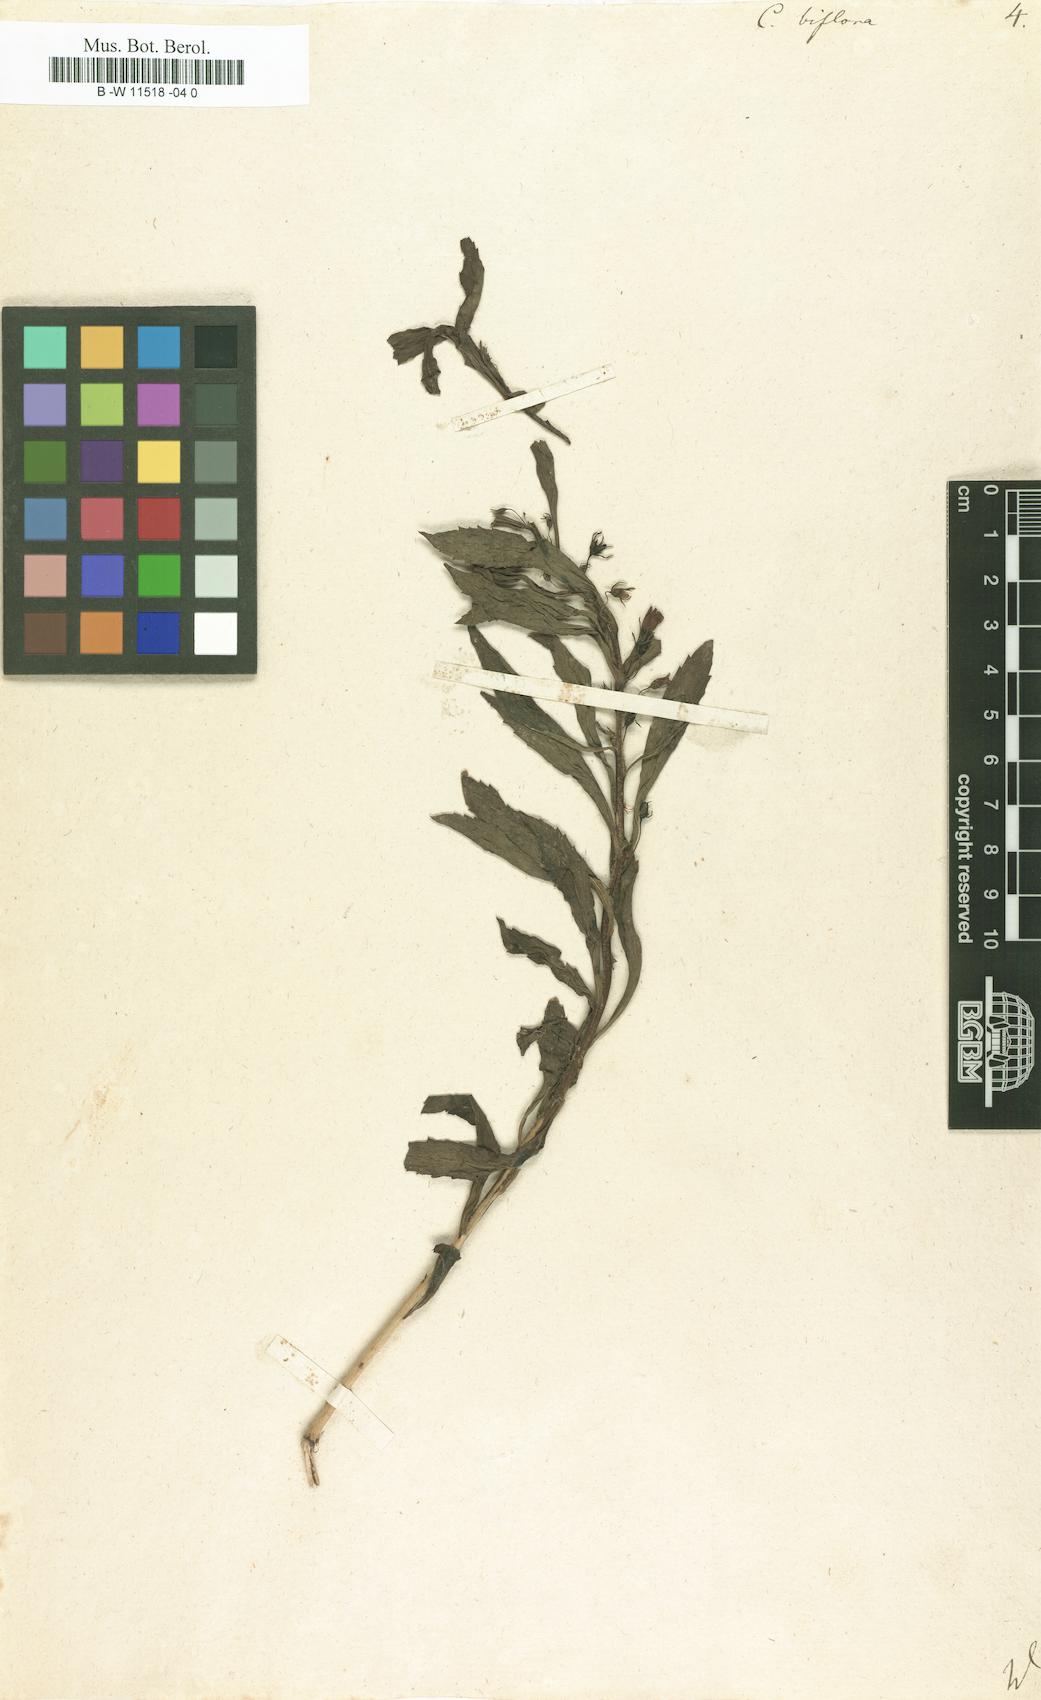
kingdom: Plantae
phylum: Tracheophyta
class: Magnoliopsida
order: Lamiales
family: Scrophulariaceae
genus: Capraria
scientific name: Capraria biflora
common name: Goatweed
